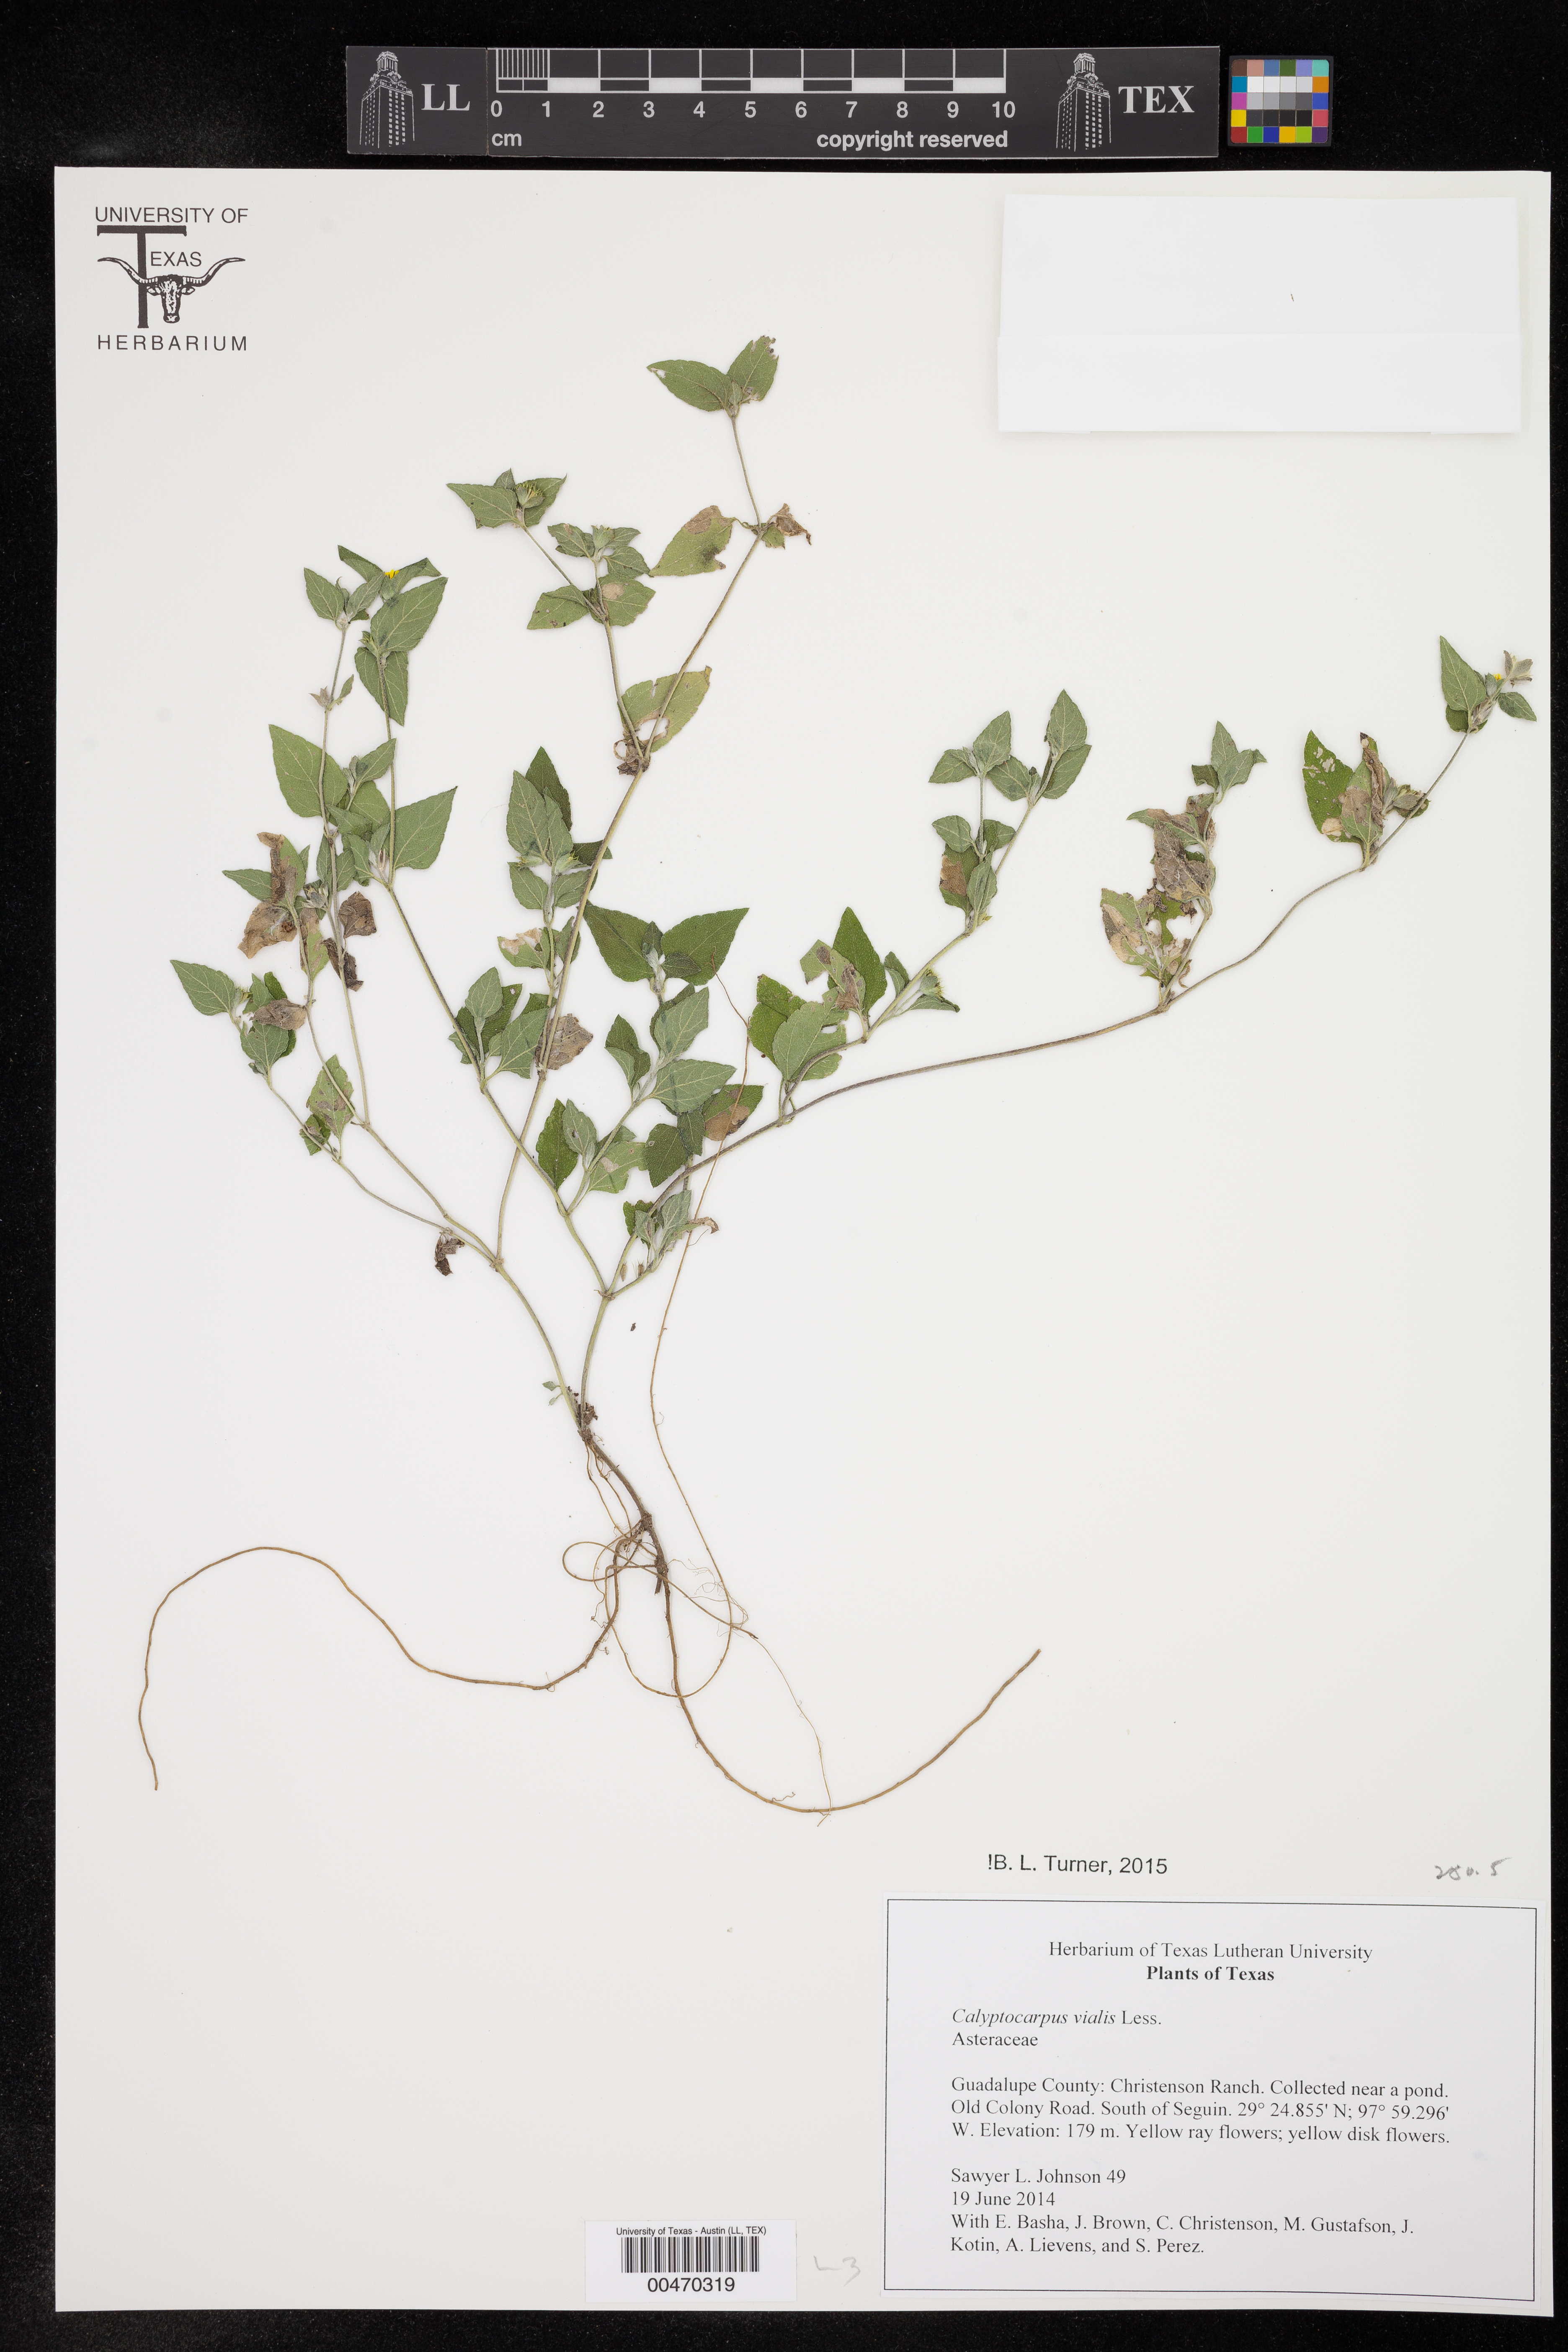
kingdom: Plantae
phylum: Tracheophyta
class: Magnoliopsida
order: Asterales
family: Asteraceae
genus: Calyptocarpus
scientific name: Calyptocarpus vialis
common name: Straggler daisy
